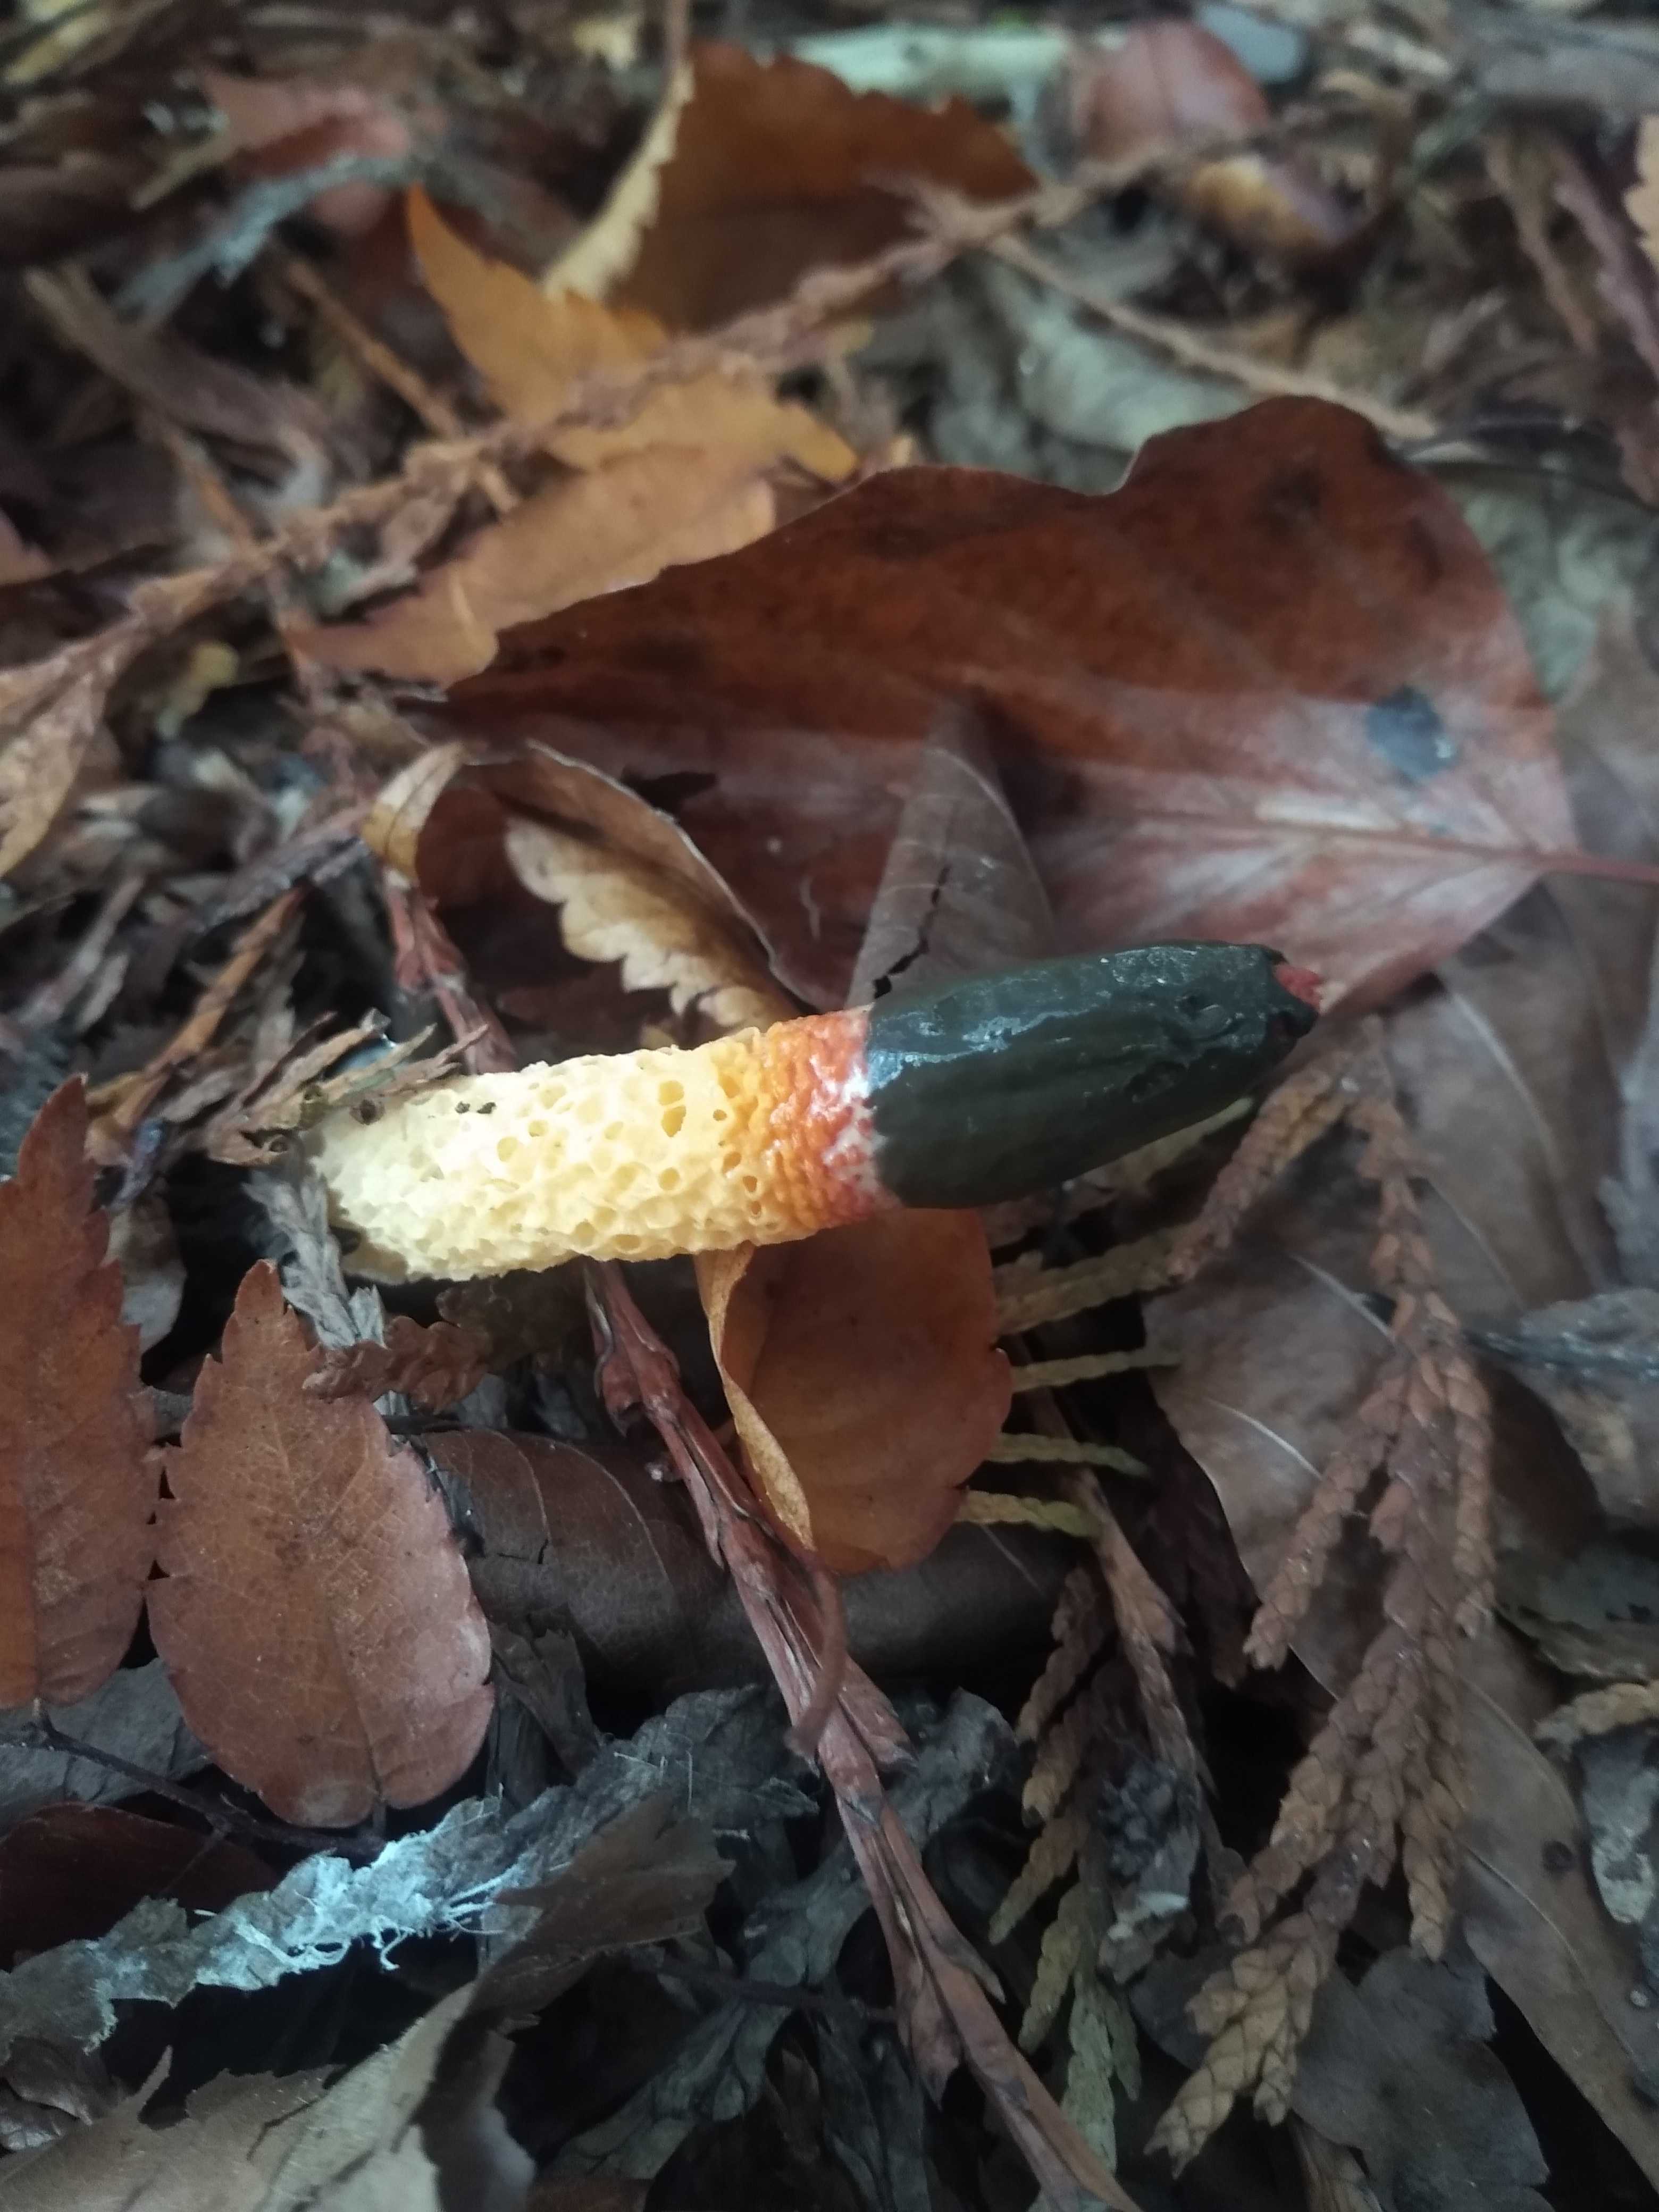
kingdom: Fungi
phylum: Basidiomycota
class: Agaricomycetes
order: Phallales
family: Phallaceae
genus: Mutinus
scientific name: Mutinus caninus
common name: hunde-stinksvamp
